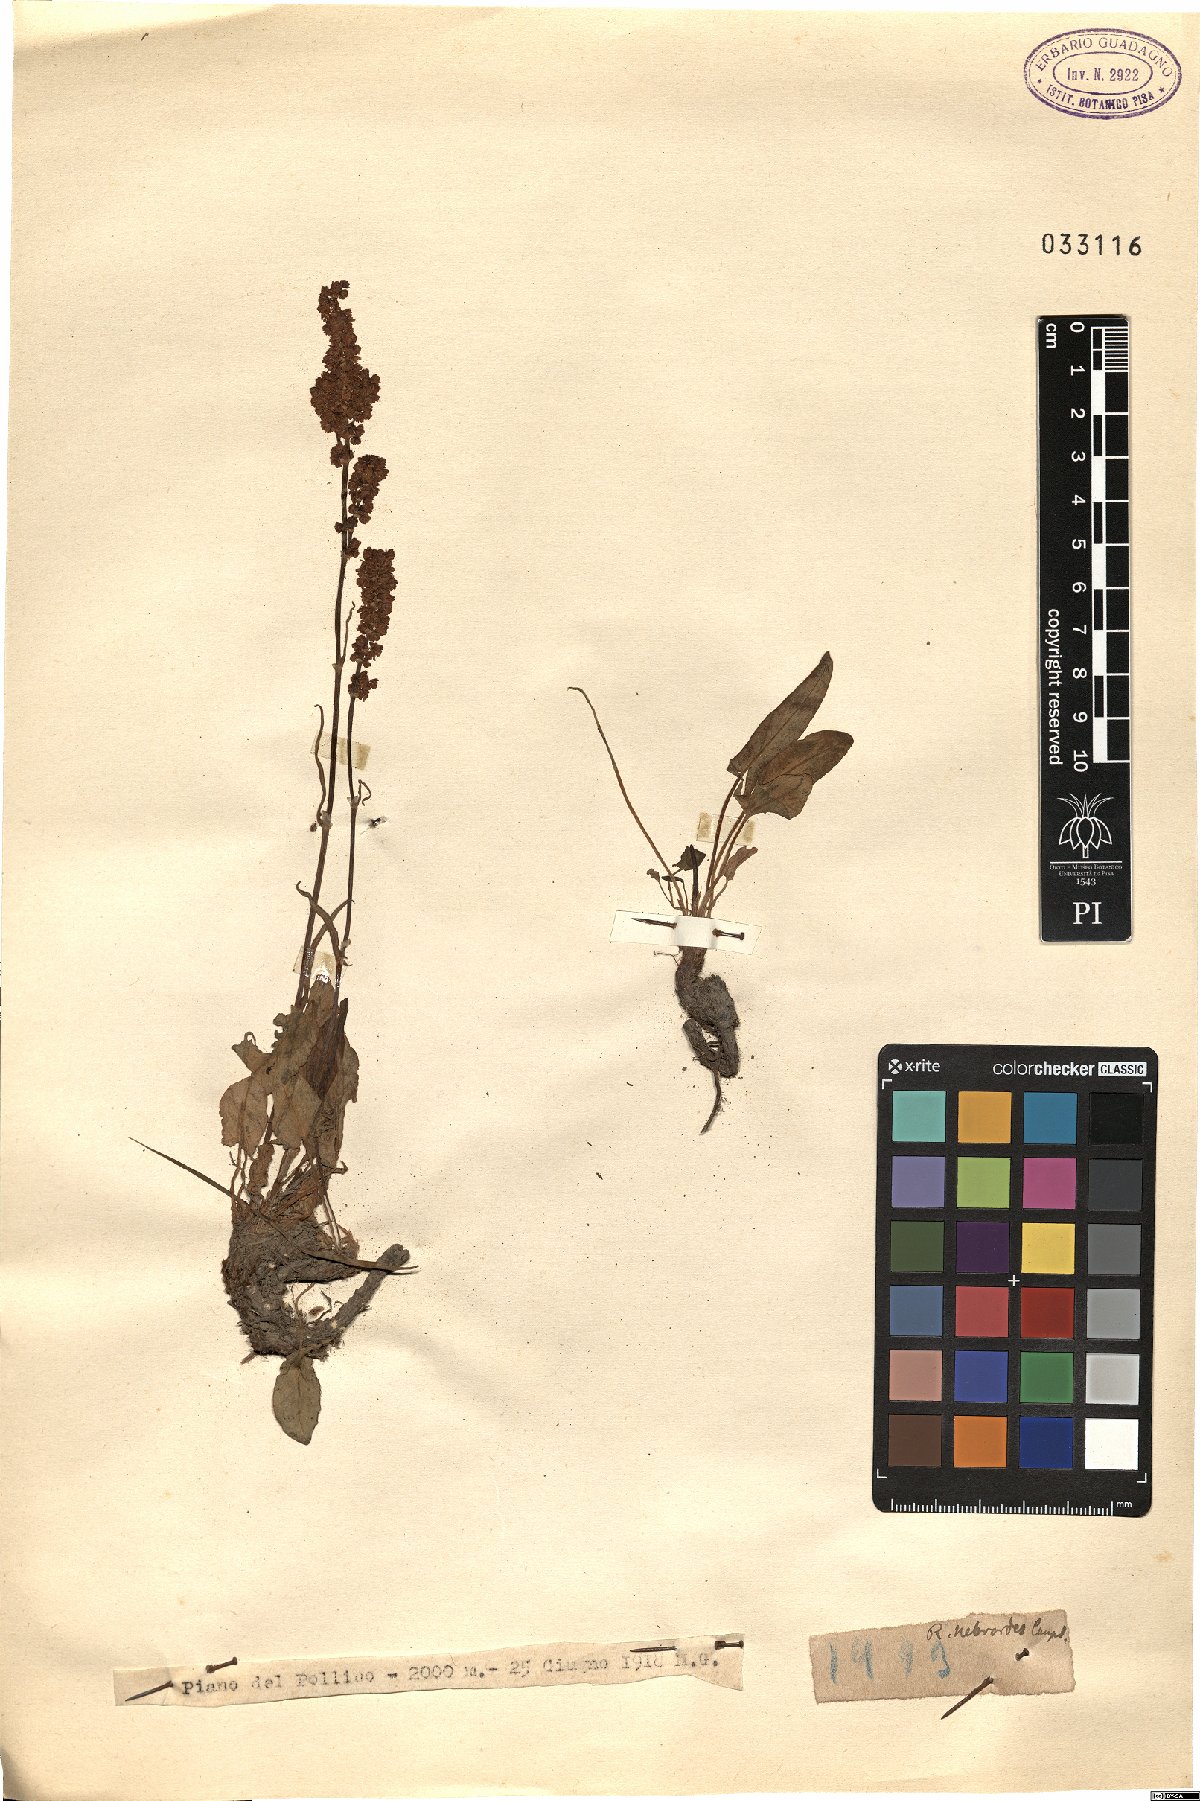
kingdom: Plantae
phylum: Tracheophyta
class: Magnoliopsida
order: Caryophyllales
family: Polygonaceae
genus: Rumex
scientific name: Rumex nebroides
